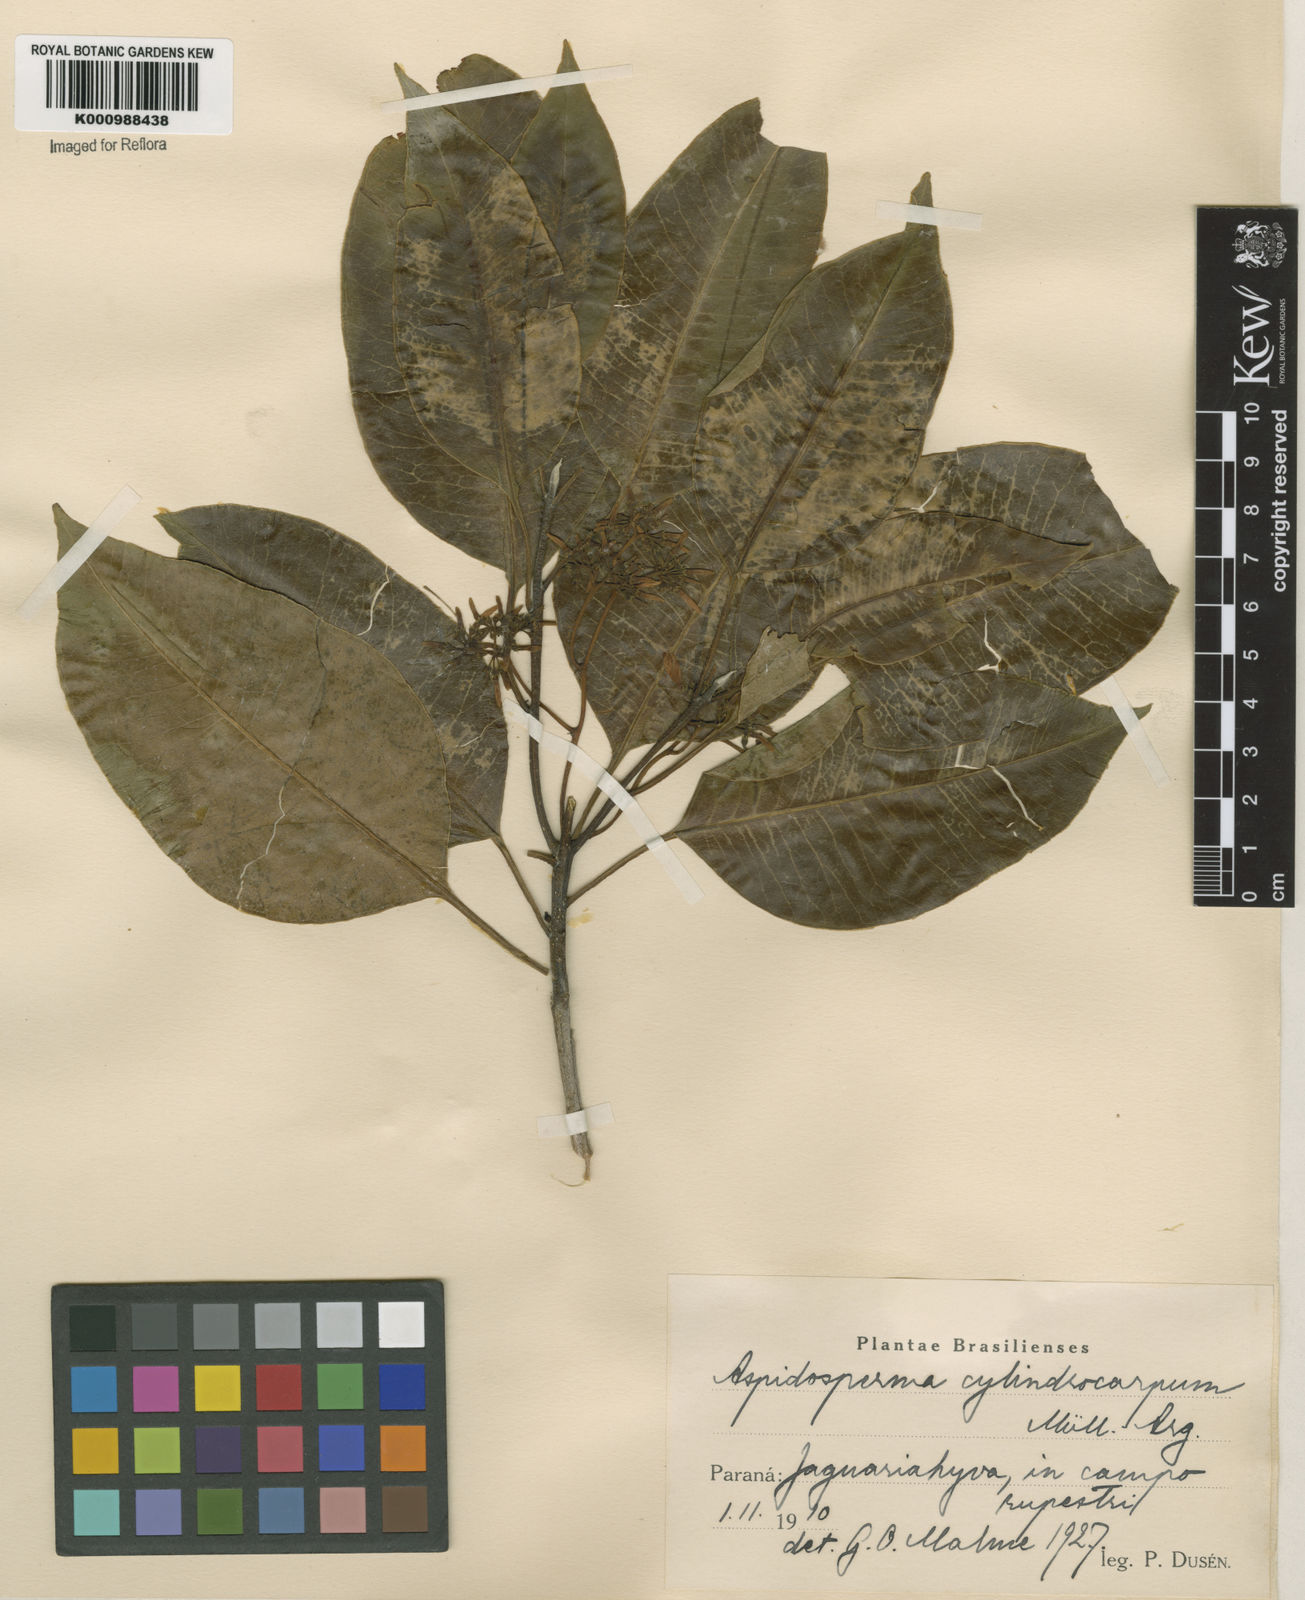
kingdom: Plantae
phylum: Tracheophyta
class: Magnoliopsida
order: Gentianales
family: Apocynaceae
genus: Aspidosperma
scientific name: Aspidosperma
